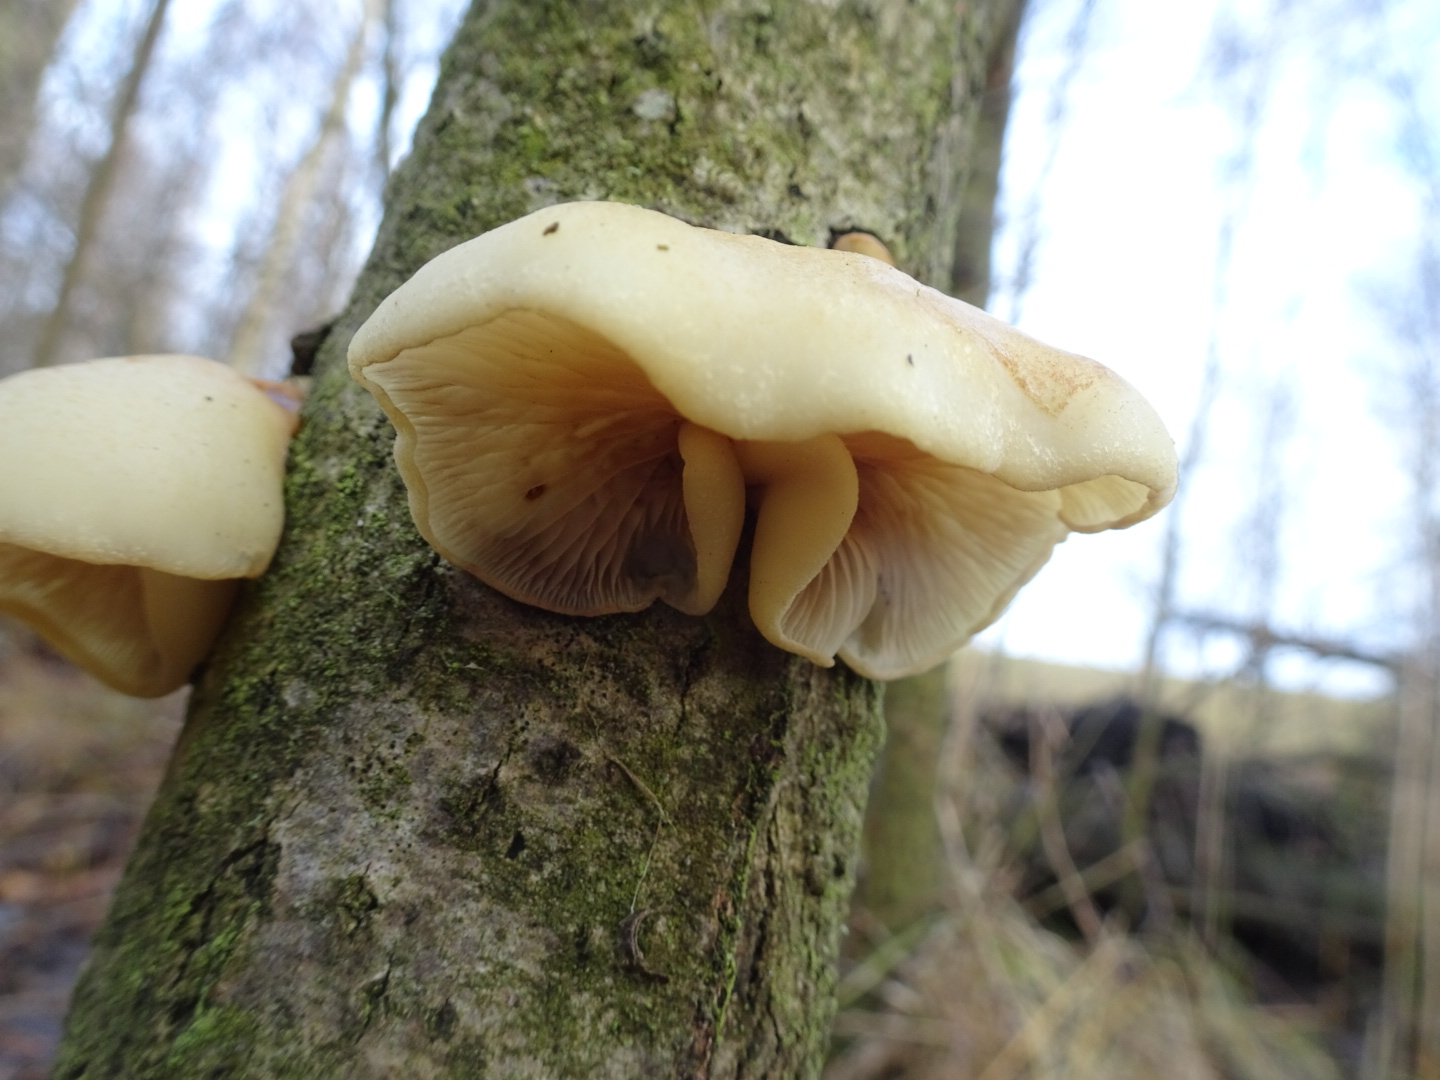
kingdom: Fungi
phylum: Basidiomycota
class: Agaricomycetes
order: Agaricales
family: Crepidotaceae
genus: Crepidotus
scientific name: Crepidotus mollis
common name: blød muslingesvamp
